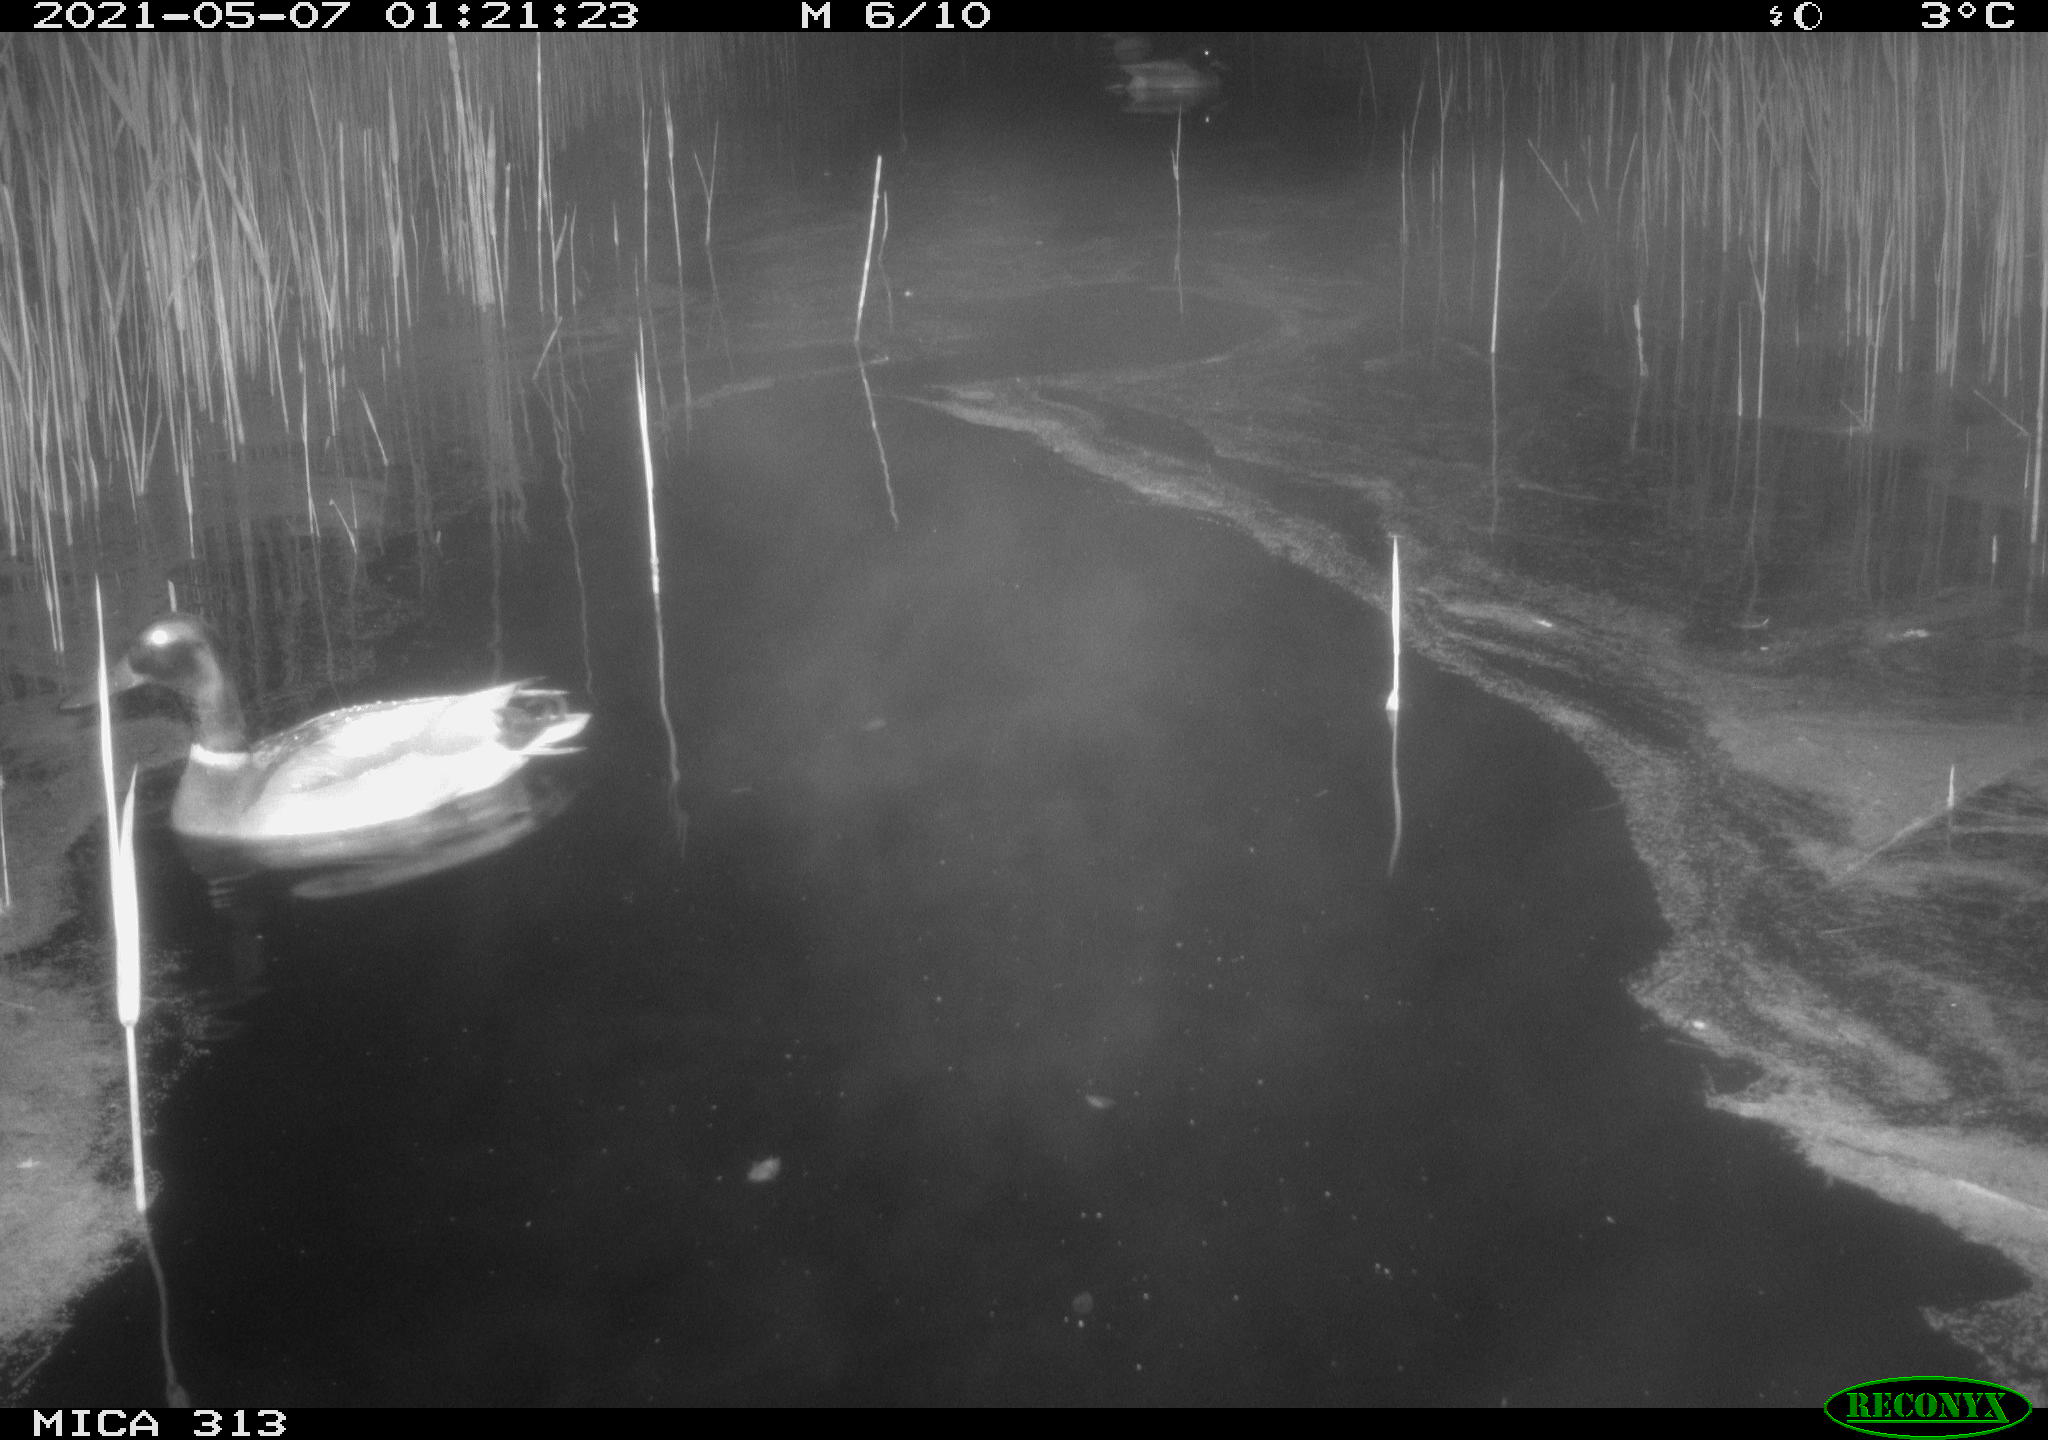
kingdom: Animalia
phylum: Chordata
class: Aves
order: Anseriformes
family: Anatidae
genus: Mareca
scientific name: Mareca strepera
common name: Gadwall
